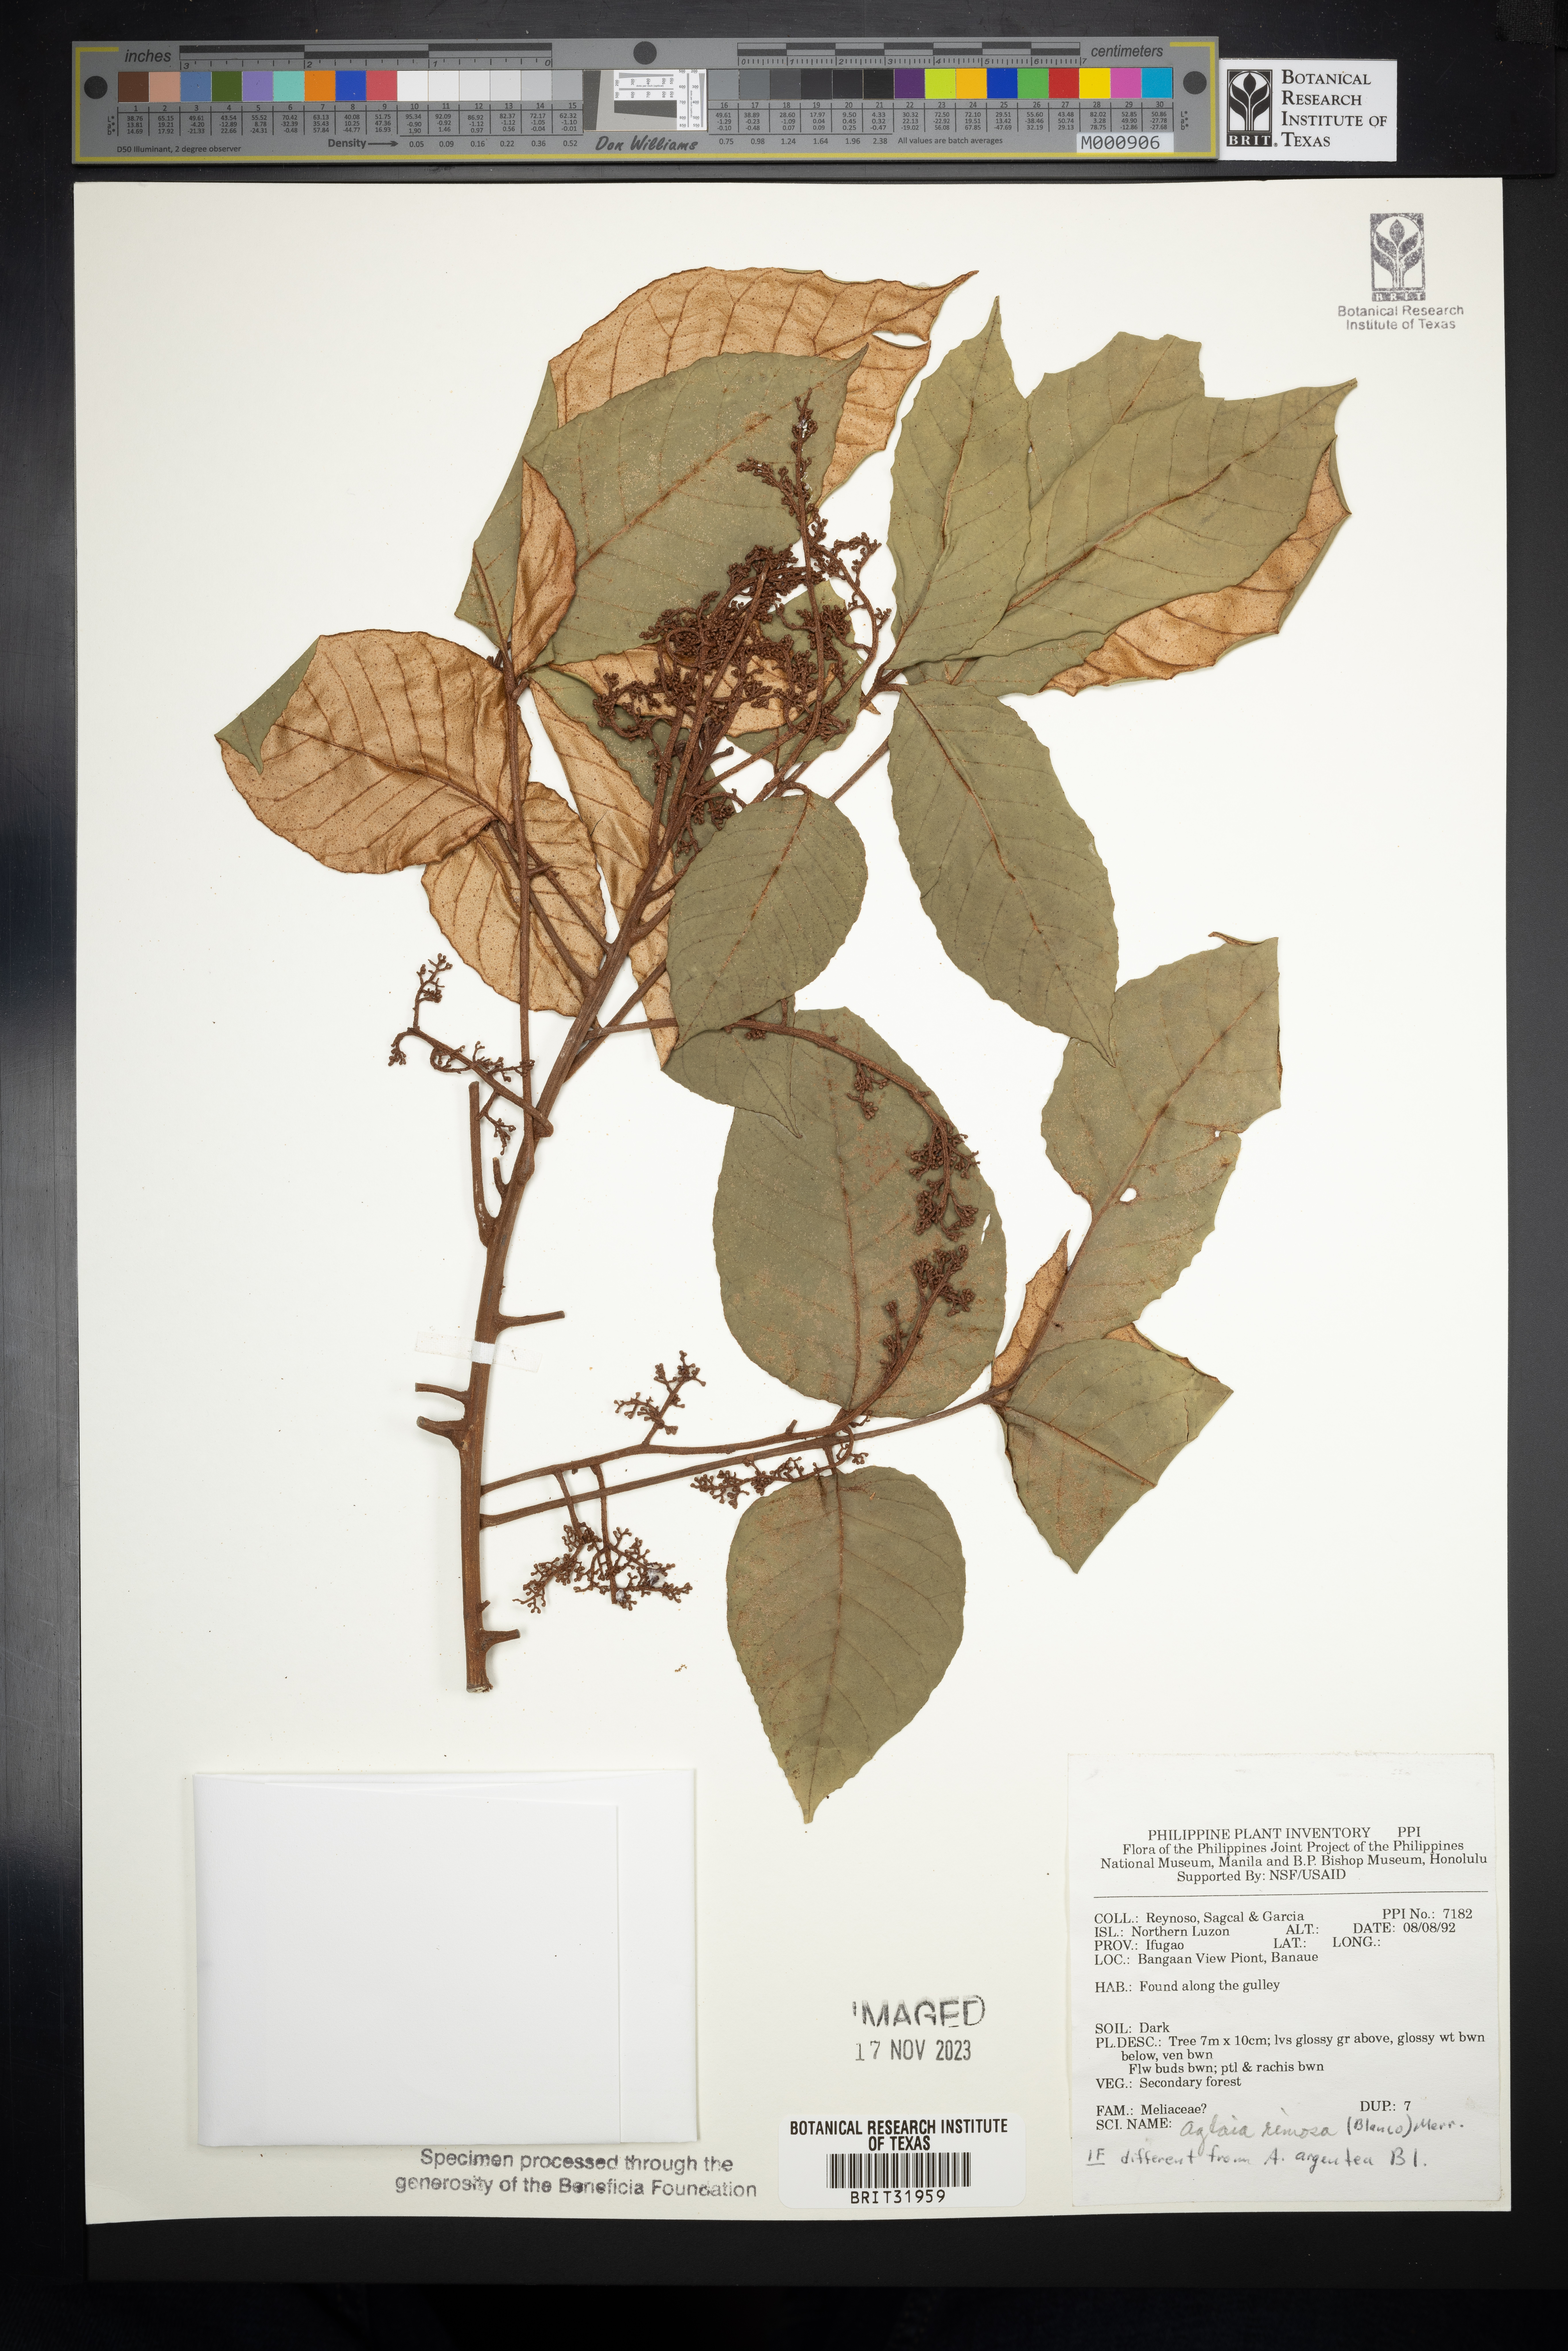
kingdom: Plantae
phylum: Tracheophyta
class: Magnoliopsida
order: Sapindales
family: Meliaceae
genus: Aglaia
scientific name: Aglaia rimosa
